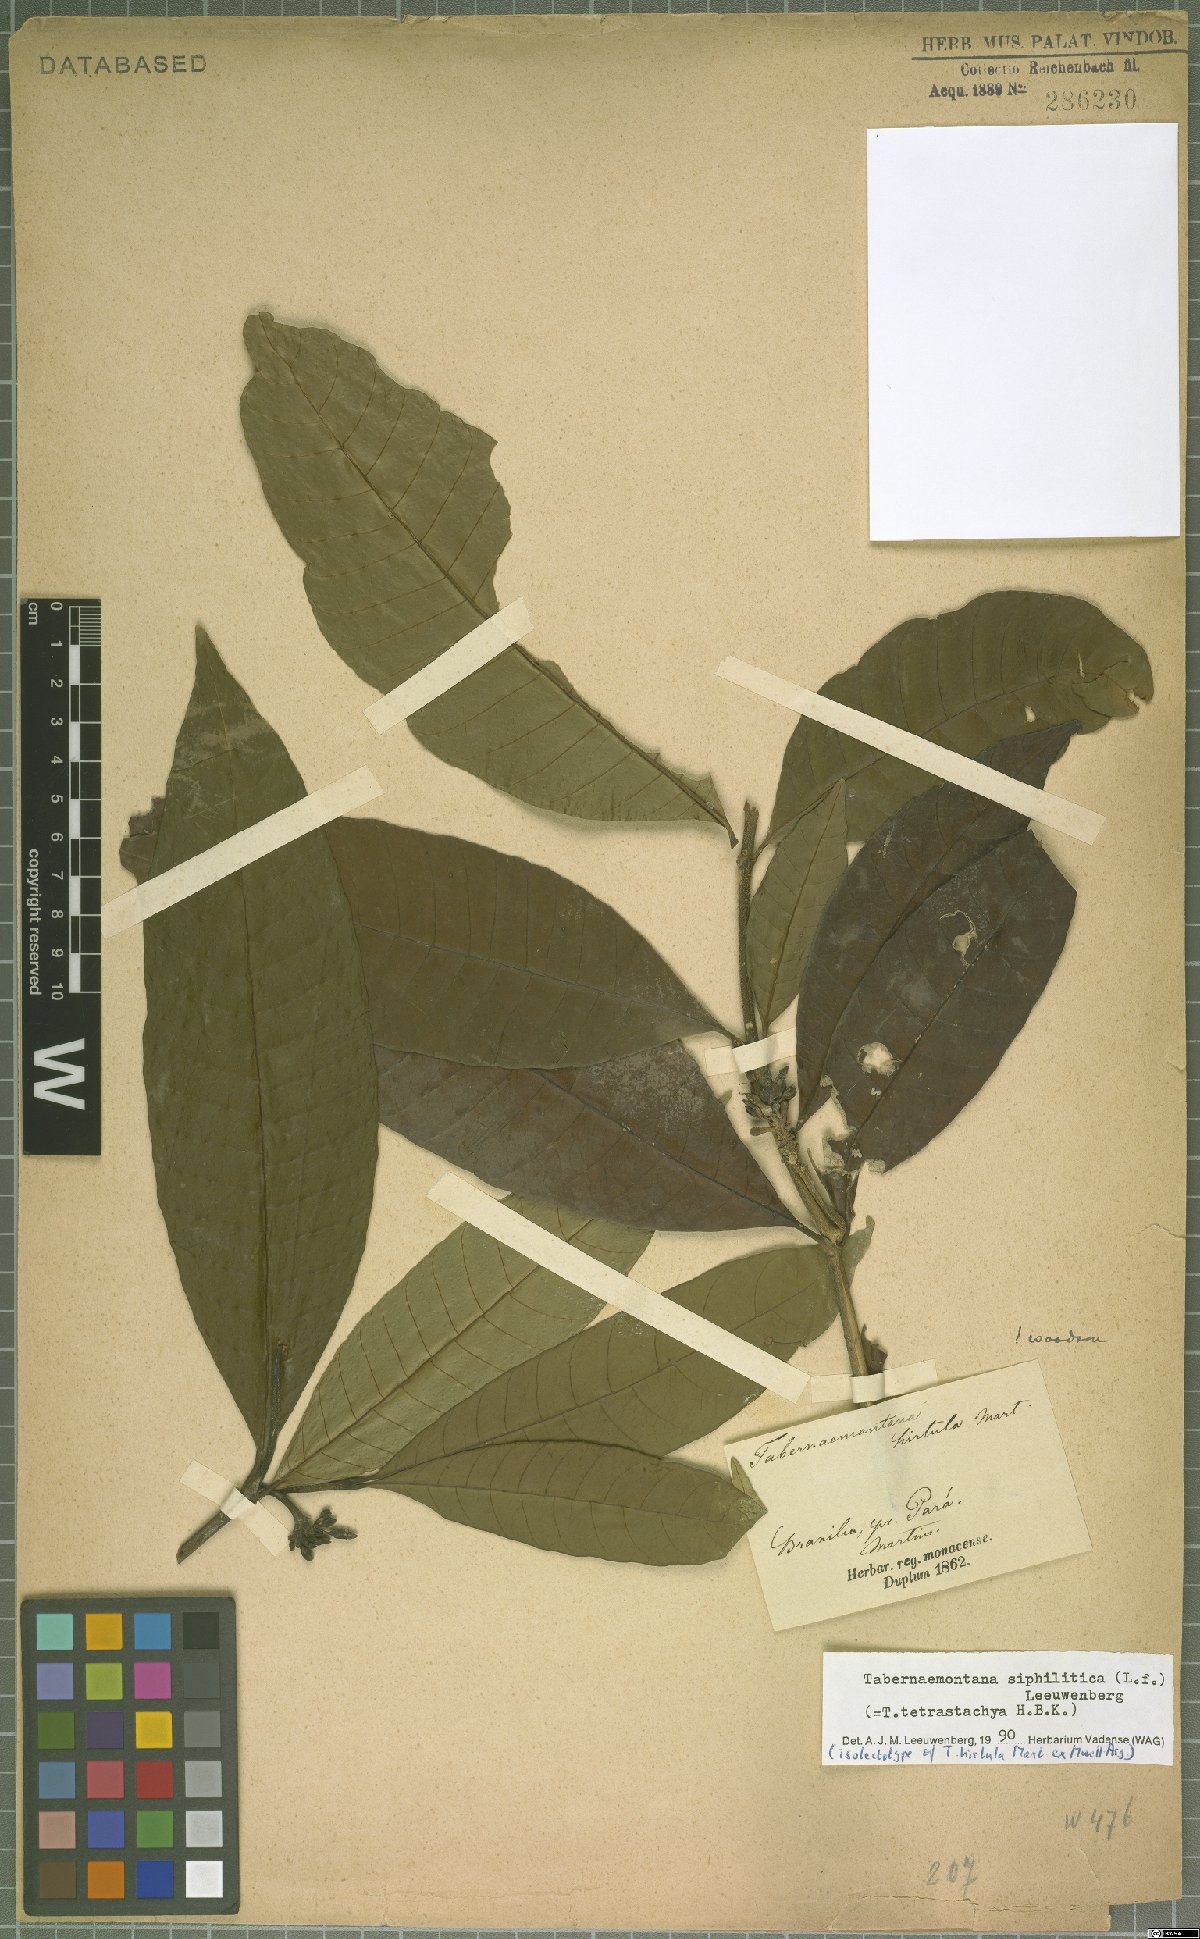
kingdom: Plantae
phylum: Tracheophyta
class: Magnoliopsida
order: Gentianales
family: Apocynaceae
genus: Tabernaemontana
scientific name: Tabernaemontana siphilitica
